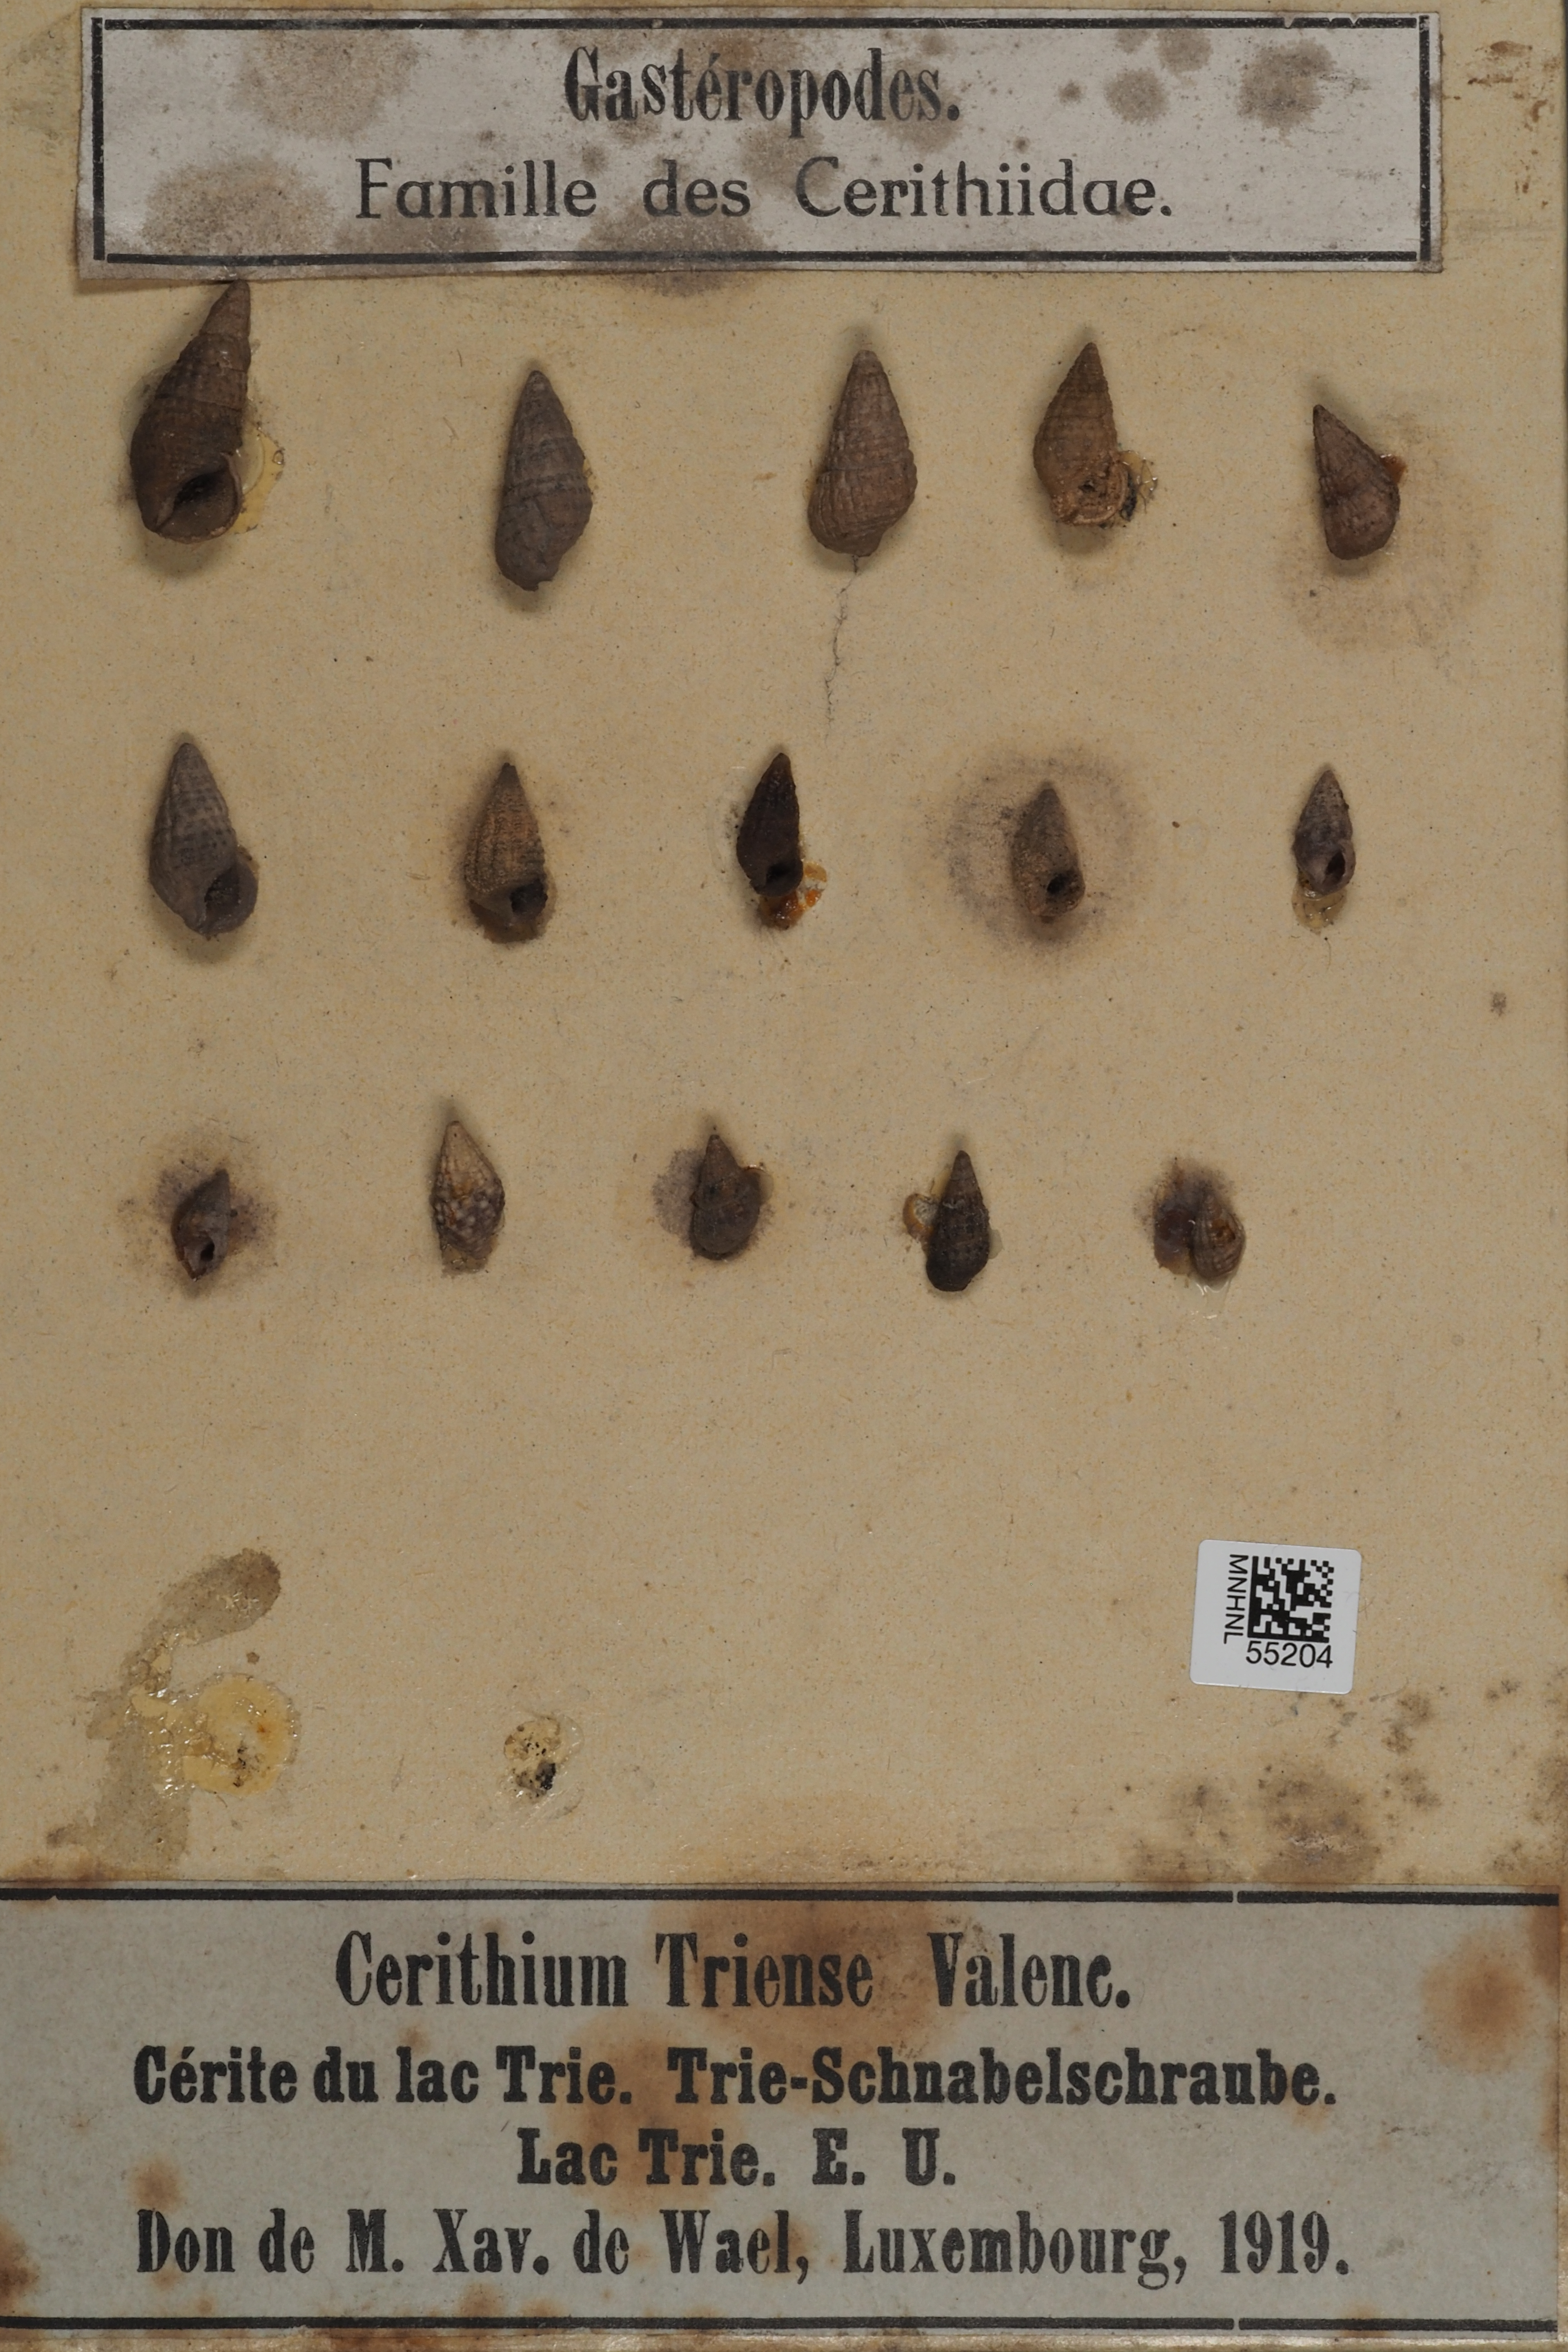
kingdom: Animalia
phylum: Mollusca
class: Gastropoda
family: Cerithiidae
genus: Cerithium
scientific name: Cerithium
